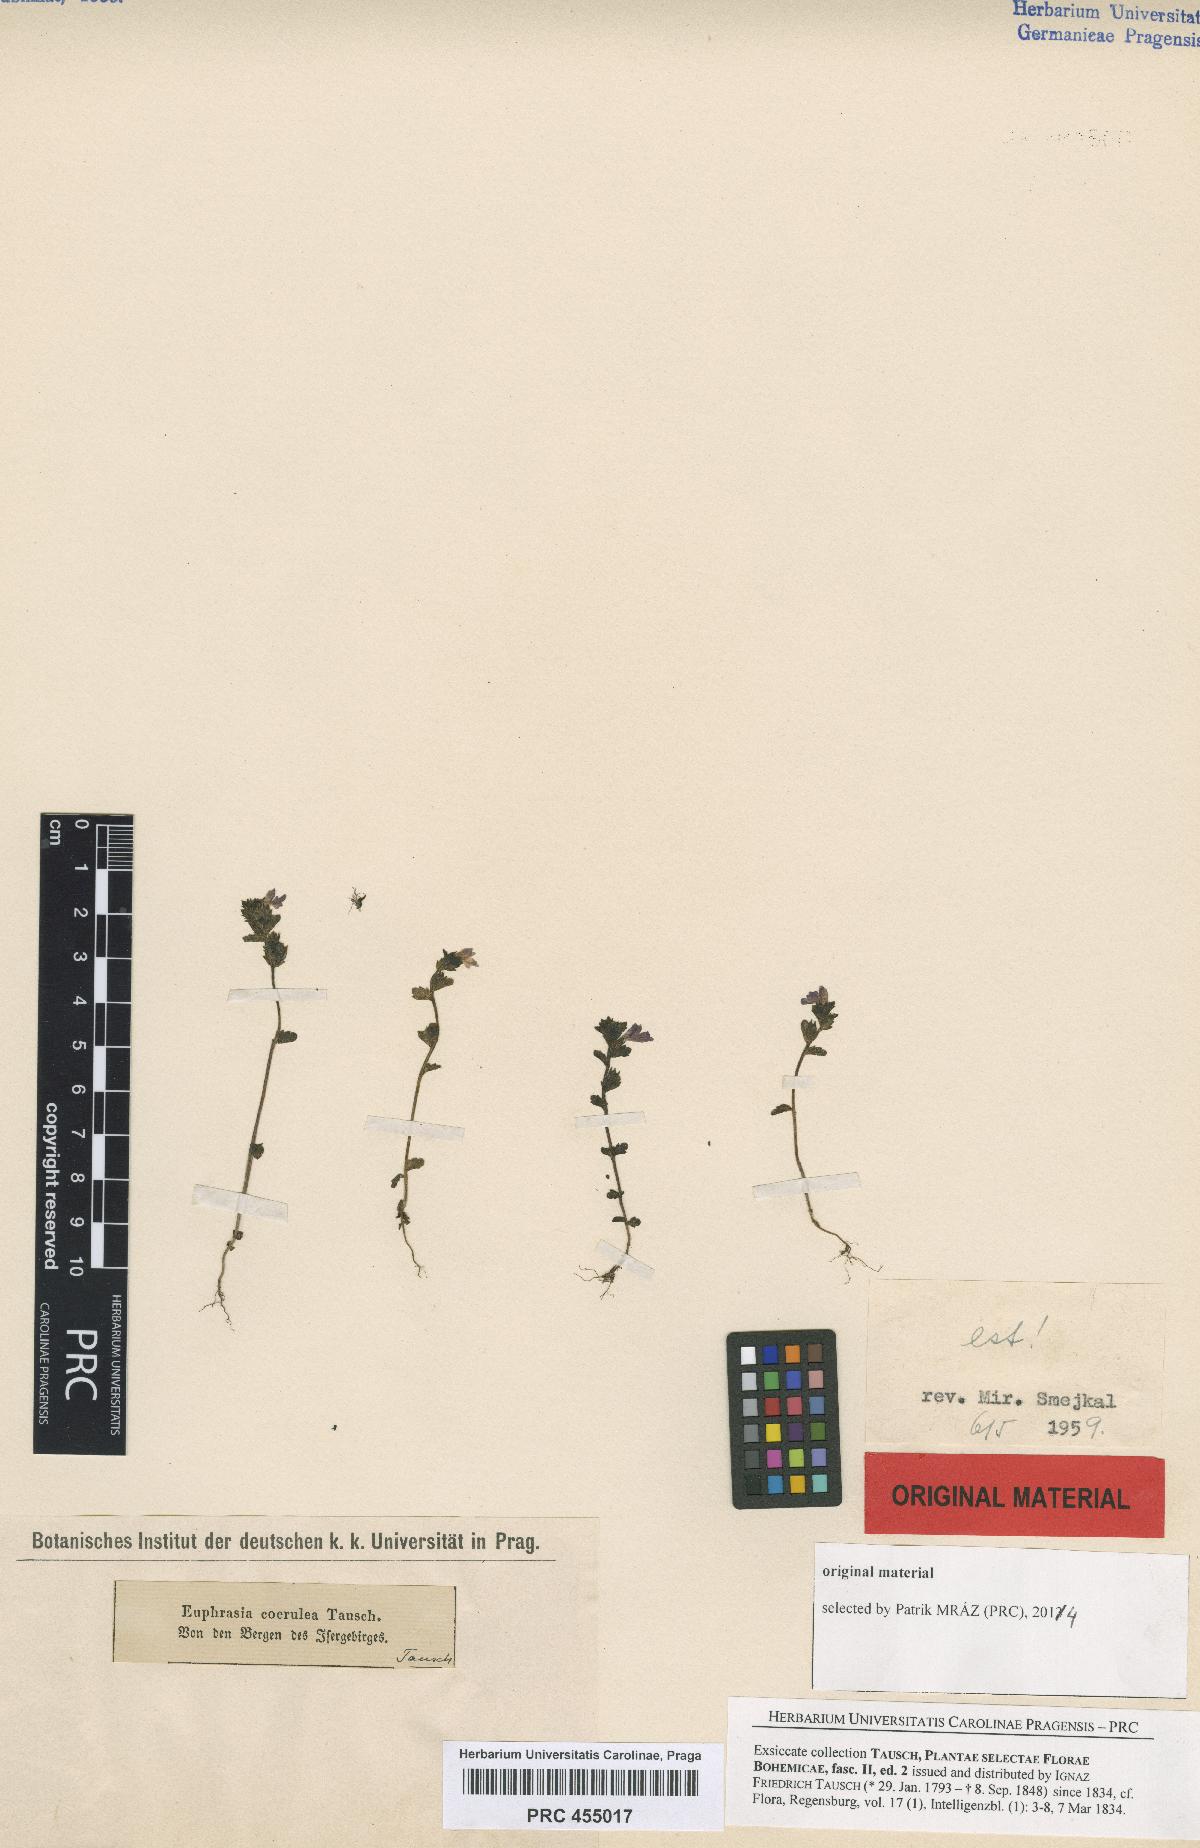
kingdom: Plantae
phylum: Tracheophyta
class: Magnoliopsida
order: Lamiales
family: Orobanchaceae
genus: Euphrasia
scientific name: Euphrasia nemorosa
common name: Common eyebright
